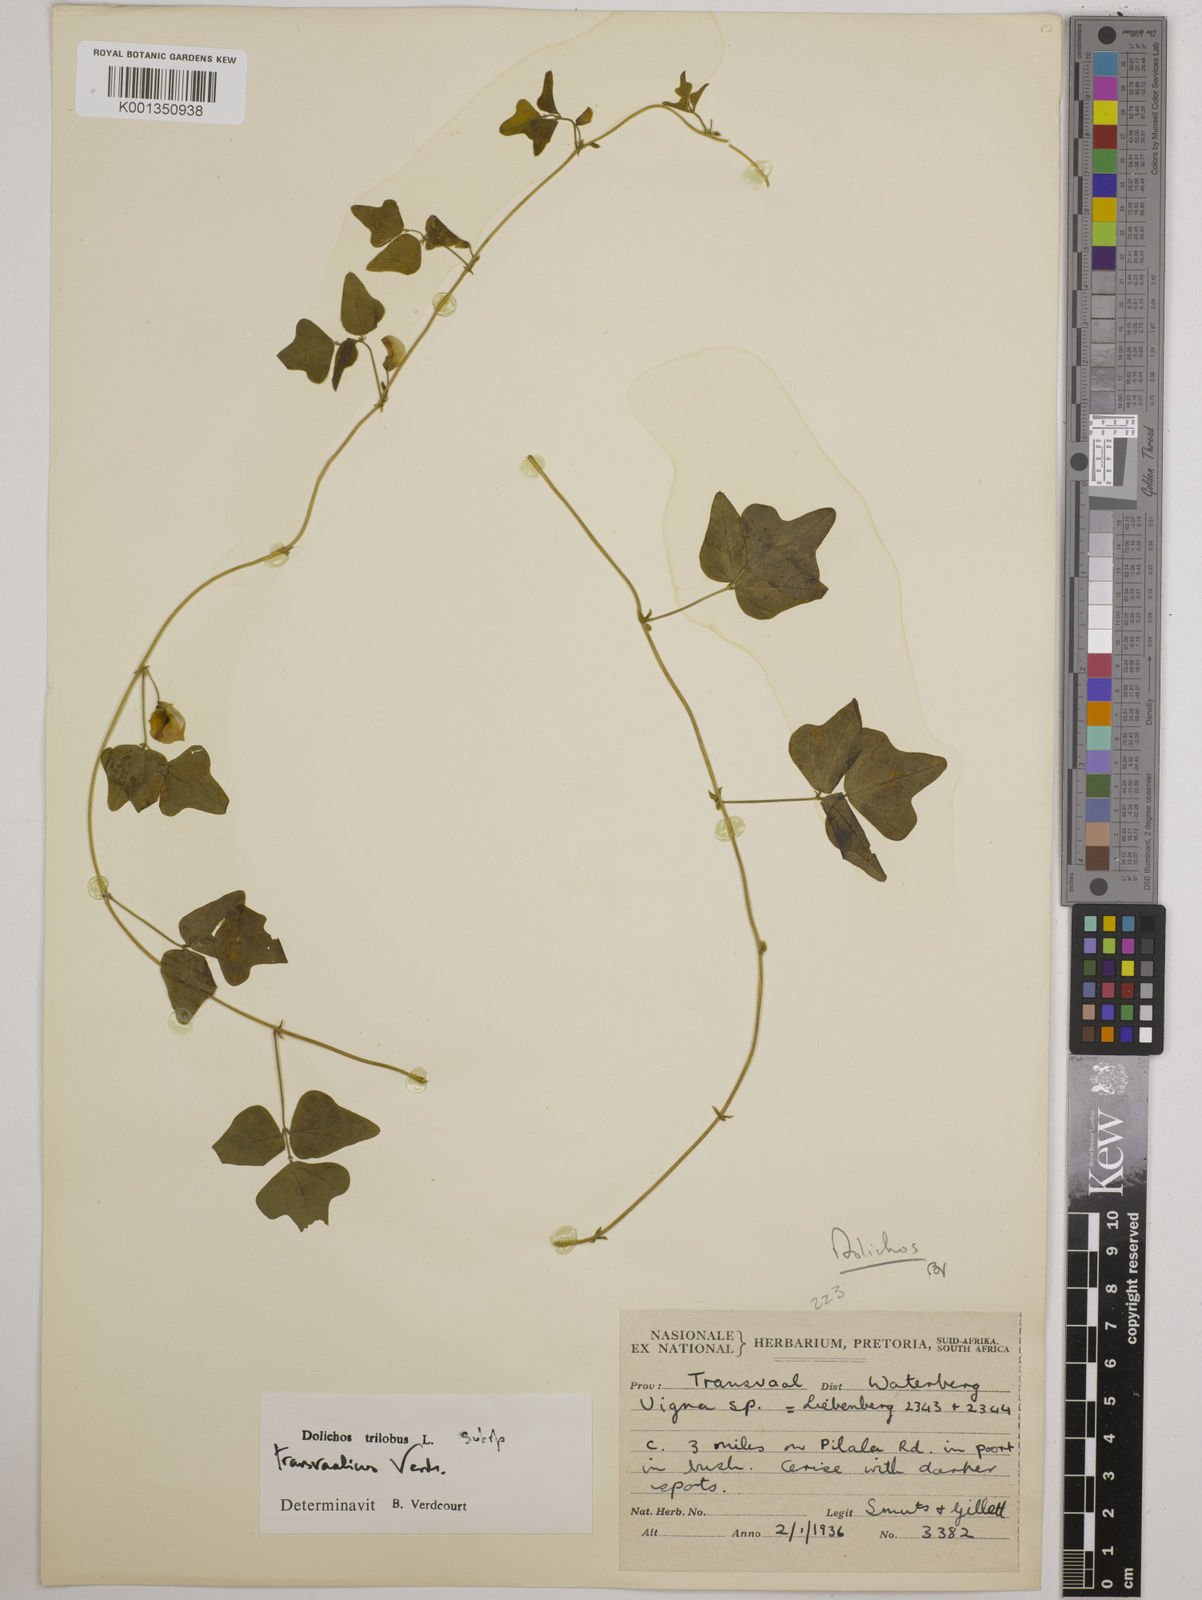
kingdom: Plantae
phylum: Tracheophyta
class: Magnoliopsida
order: Fabales
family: Fabaceae
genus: Dolichos
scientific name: Dolichos
